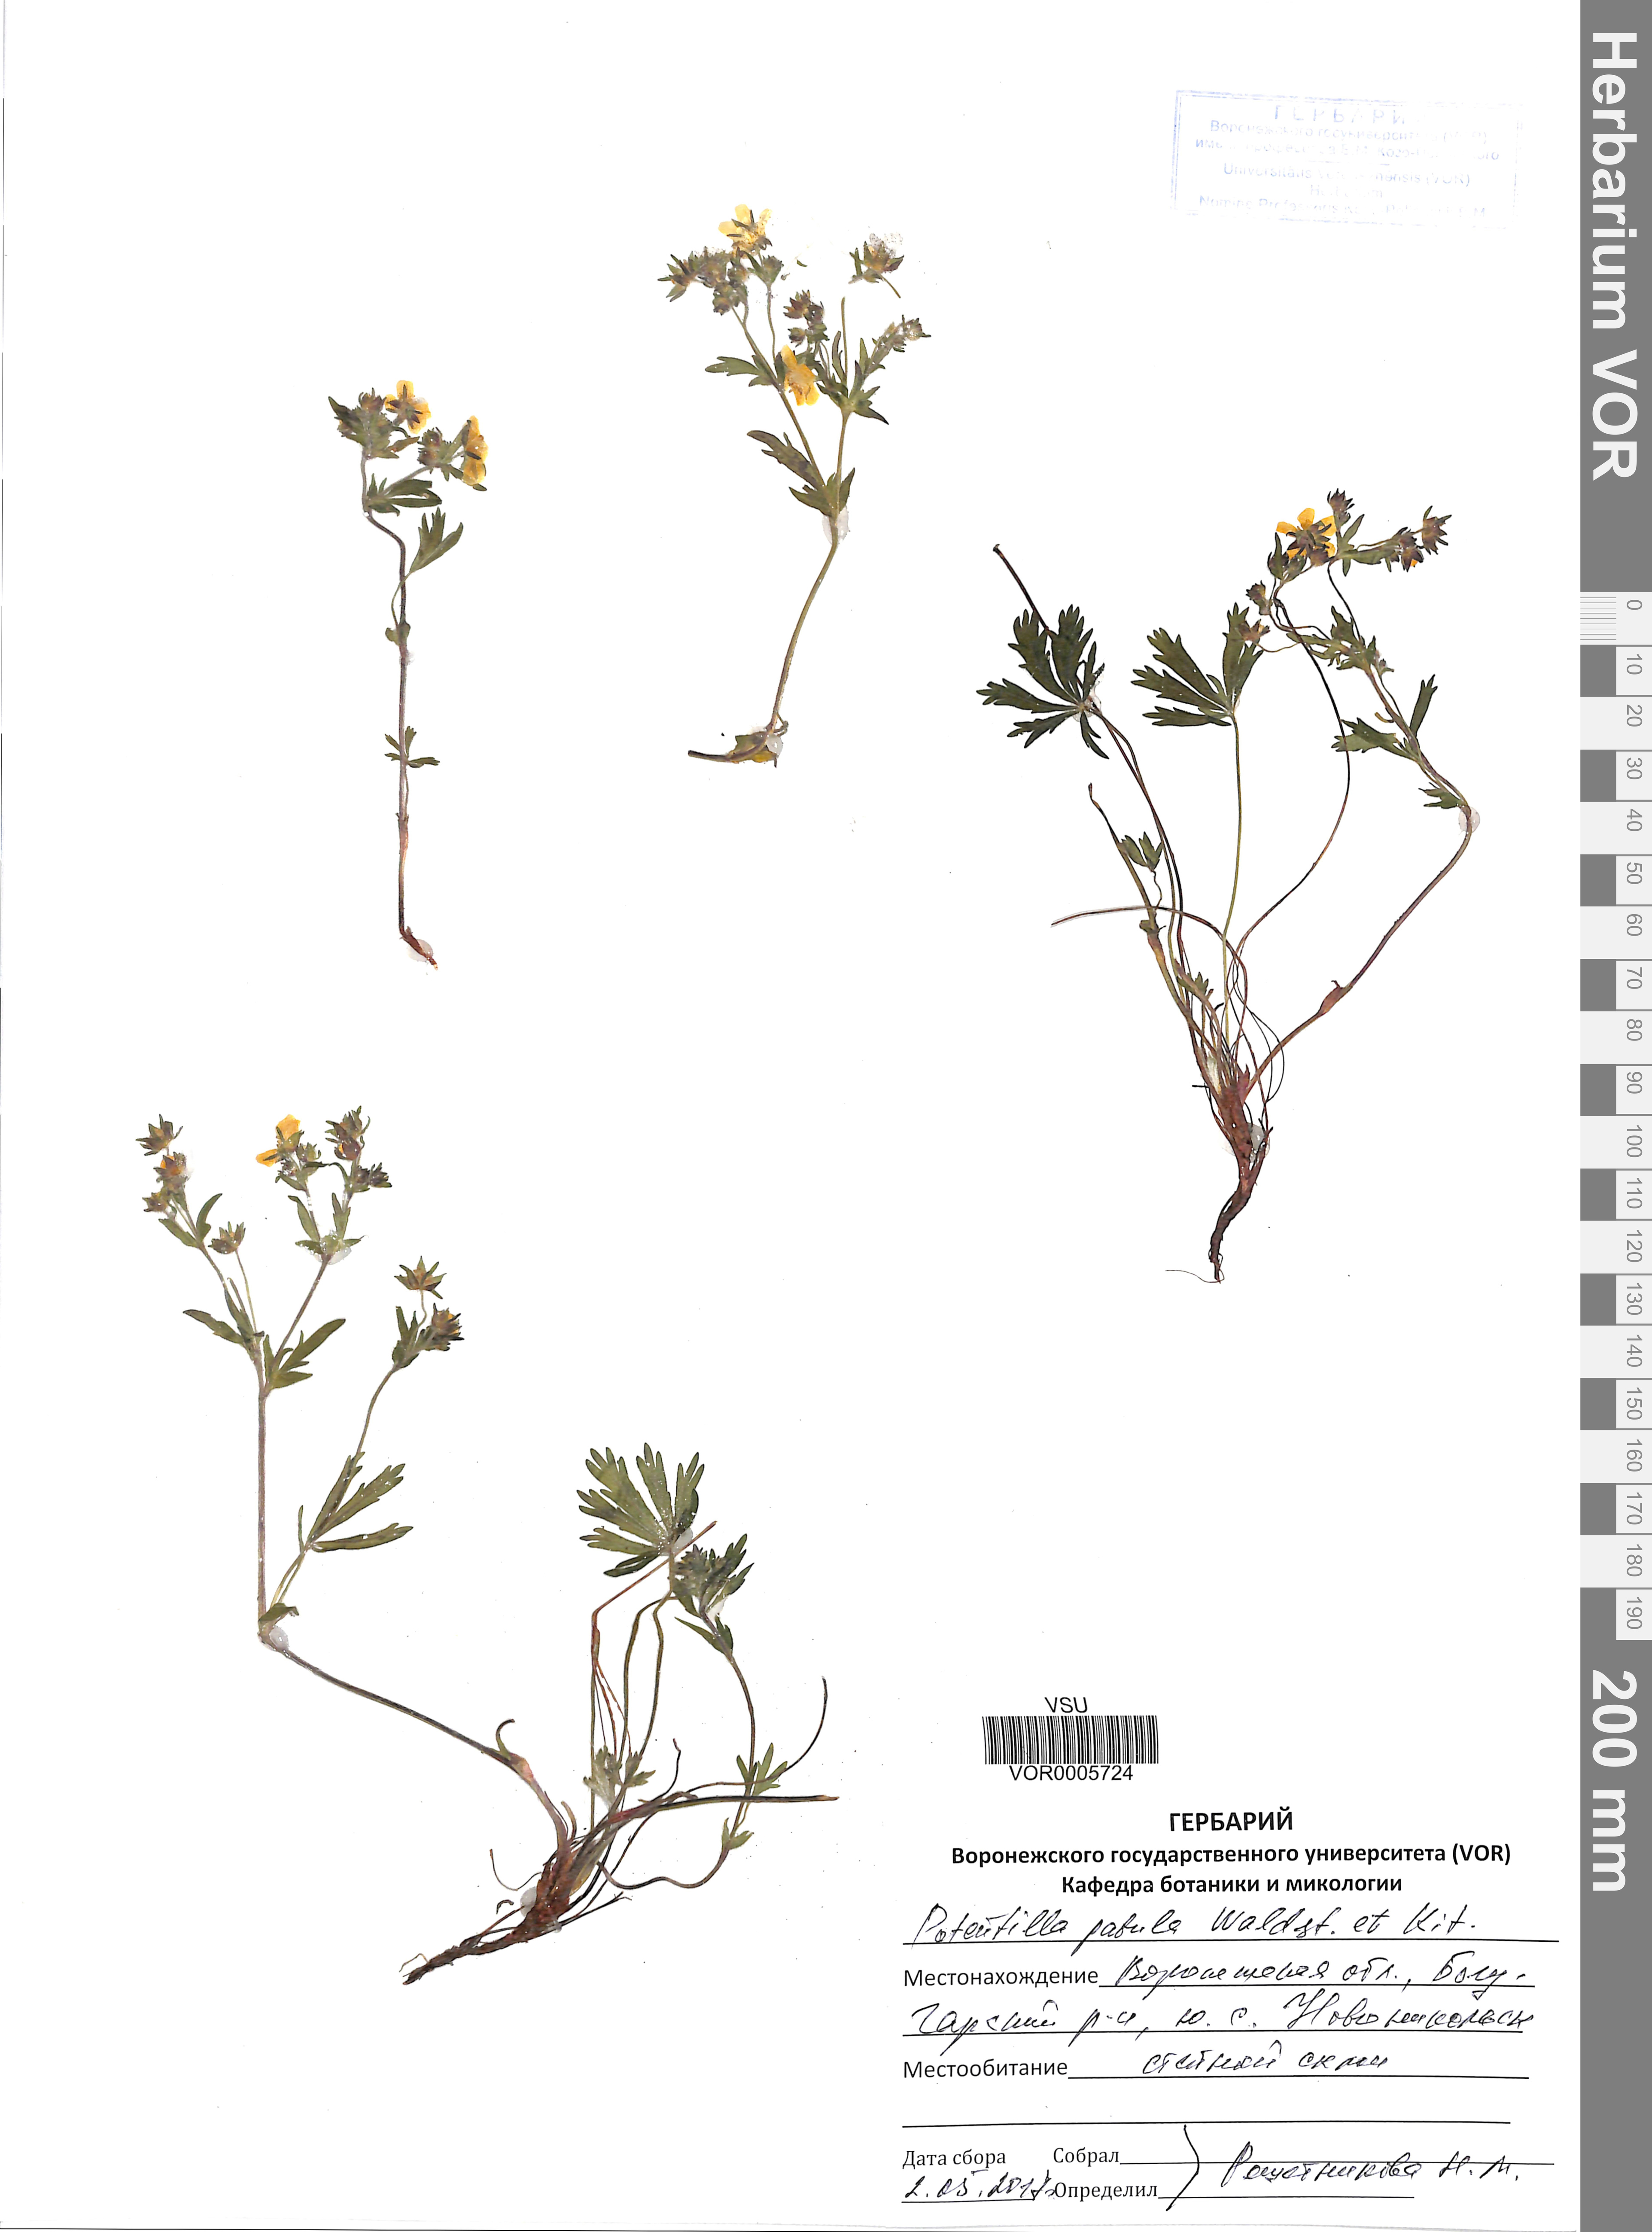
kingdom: Plantae
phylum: Tracheophyta
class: Magnoliopsida
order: Rosales
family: Rosaceae
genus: Potentilla
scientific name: Potentilla patula
